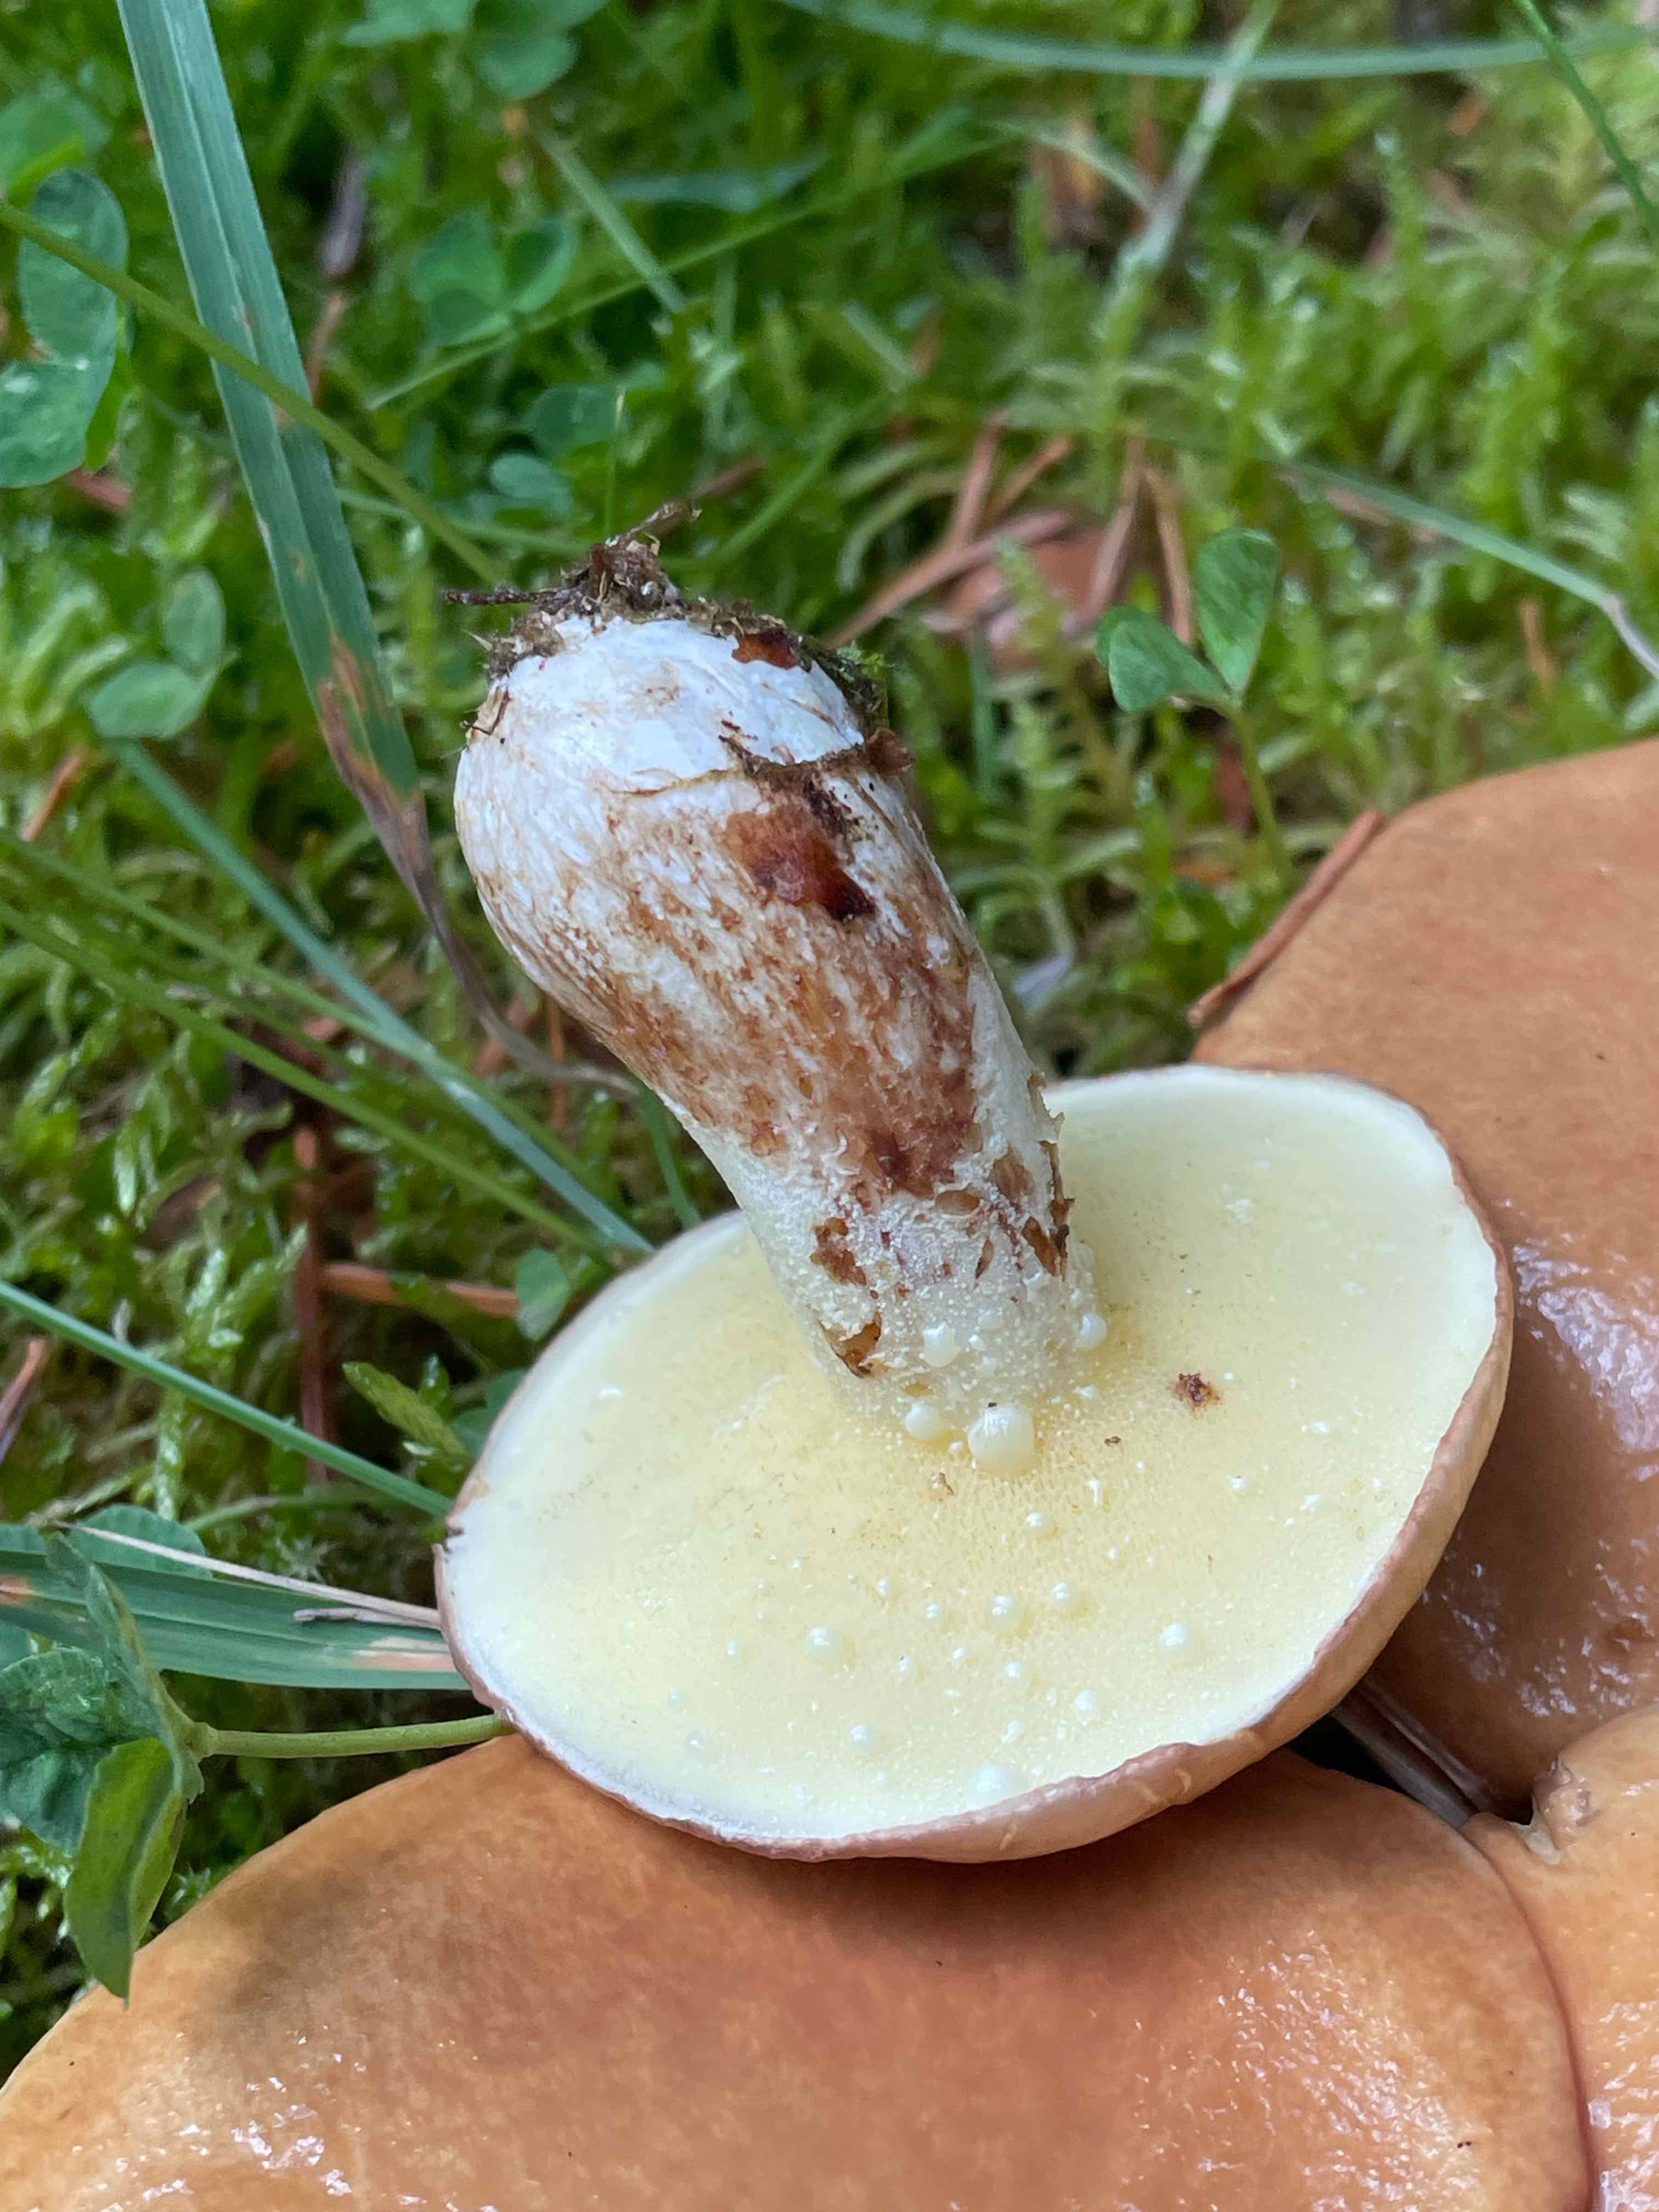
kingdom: Fungi
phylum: Basidiomycota
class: Agaricomycetes
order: Boletales
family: Suillaceae
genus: Suillus
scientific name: Suillus granulatus
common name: kornet slimrørhat
